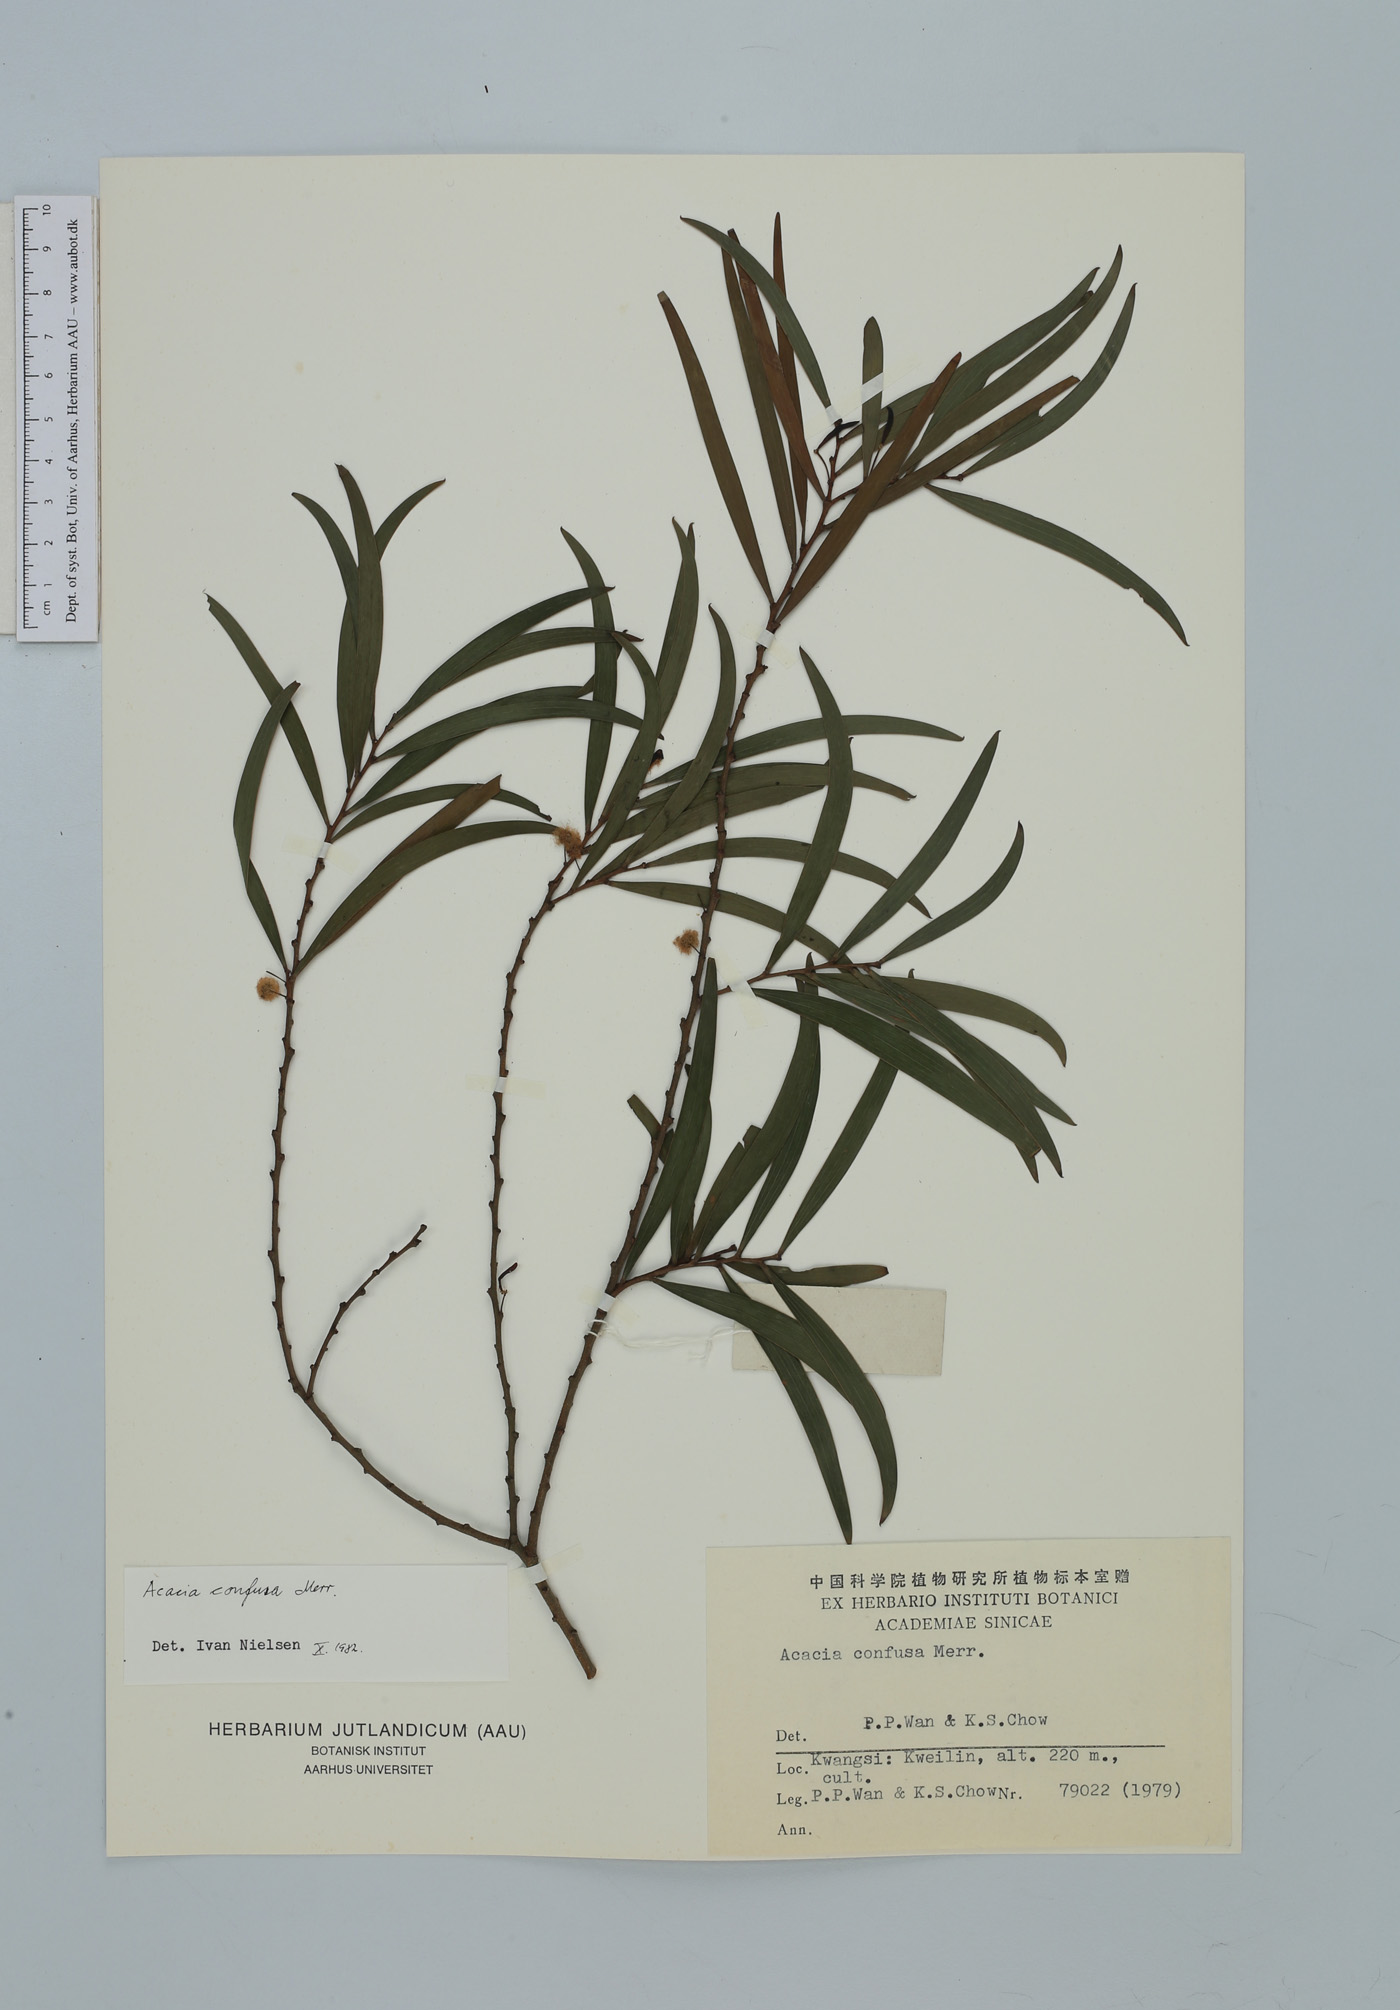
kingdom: Plantae
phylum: Tracheophyta
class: Magnoliopsida
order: Fabales
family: Fabaceae
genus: Acacia
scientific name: Acacia confusa
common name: Formosan koa
